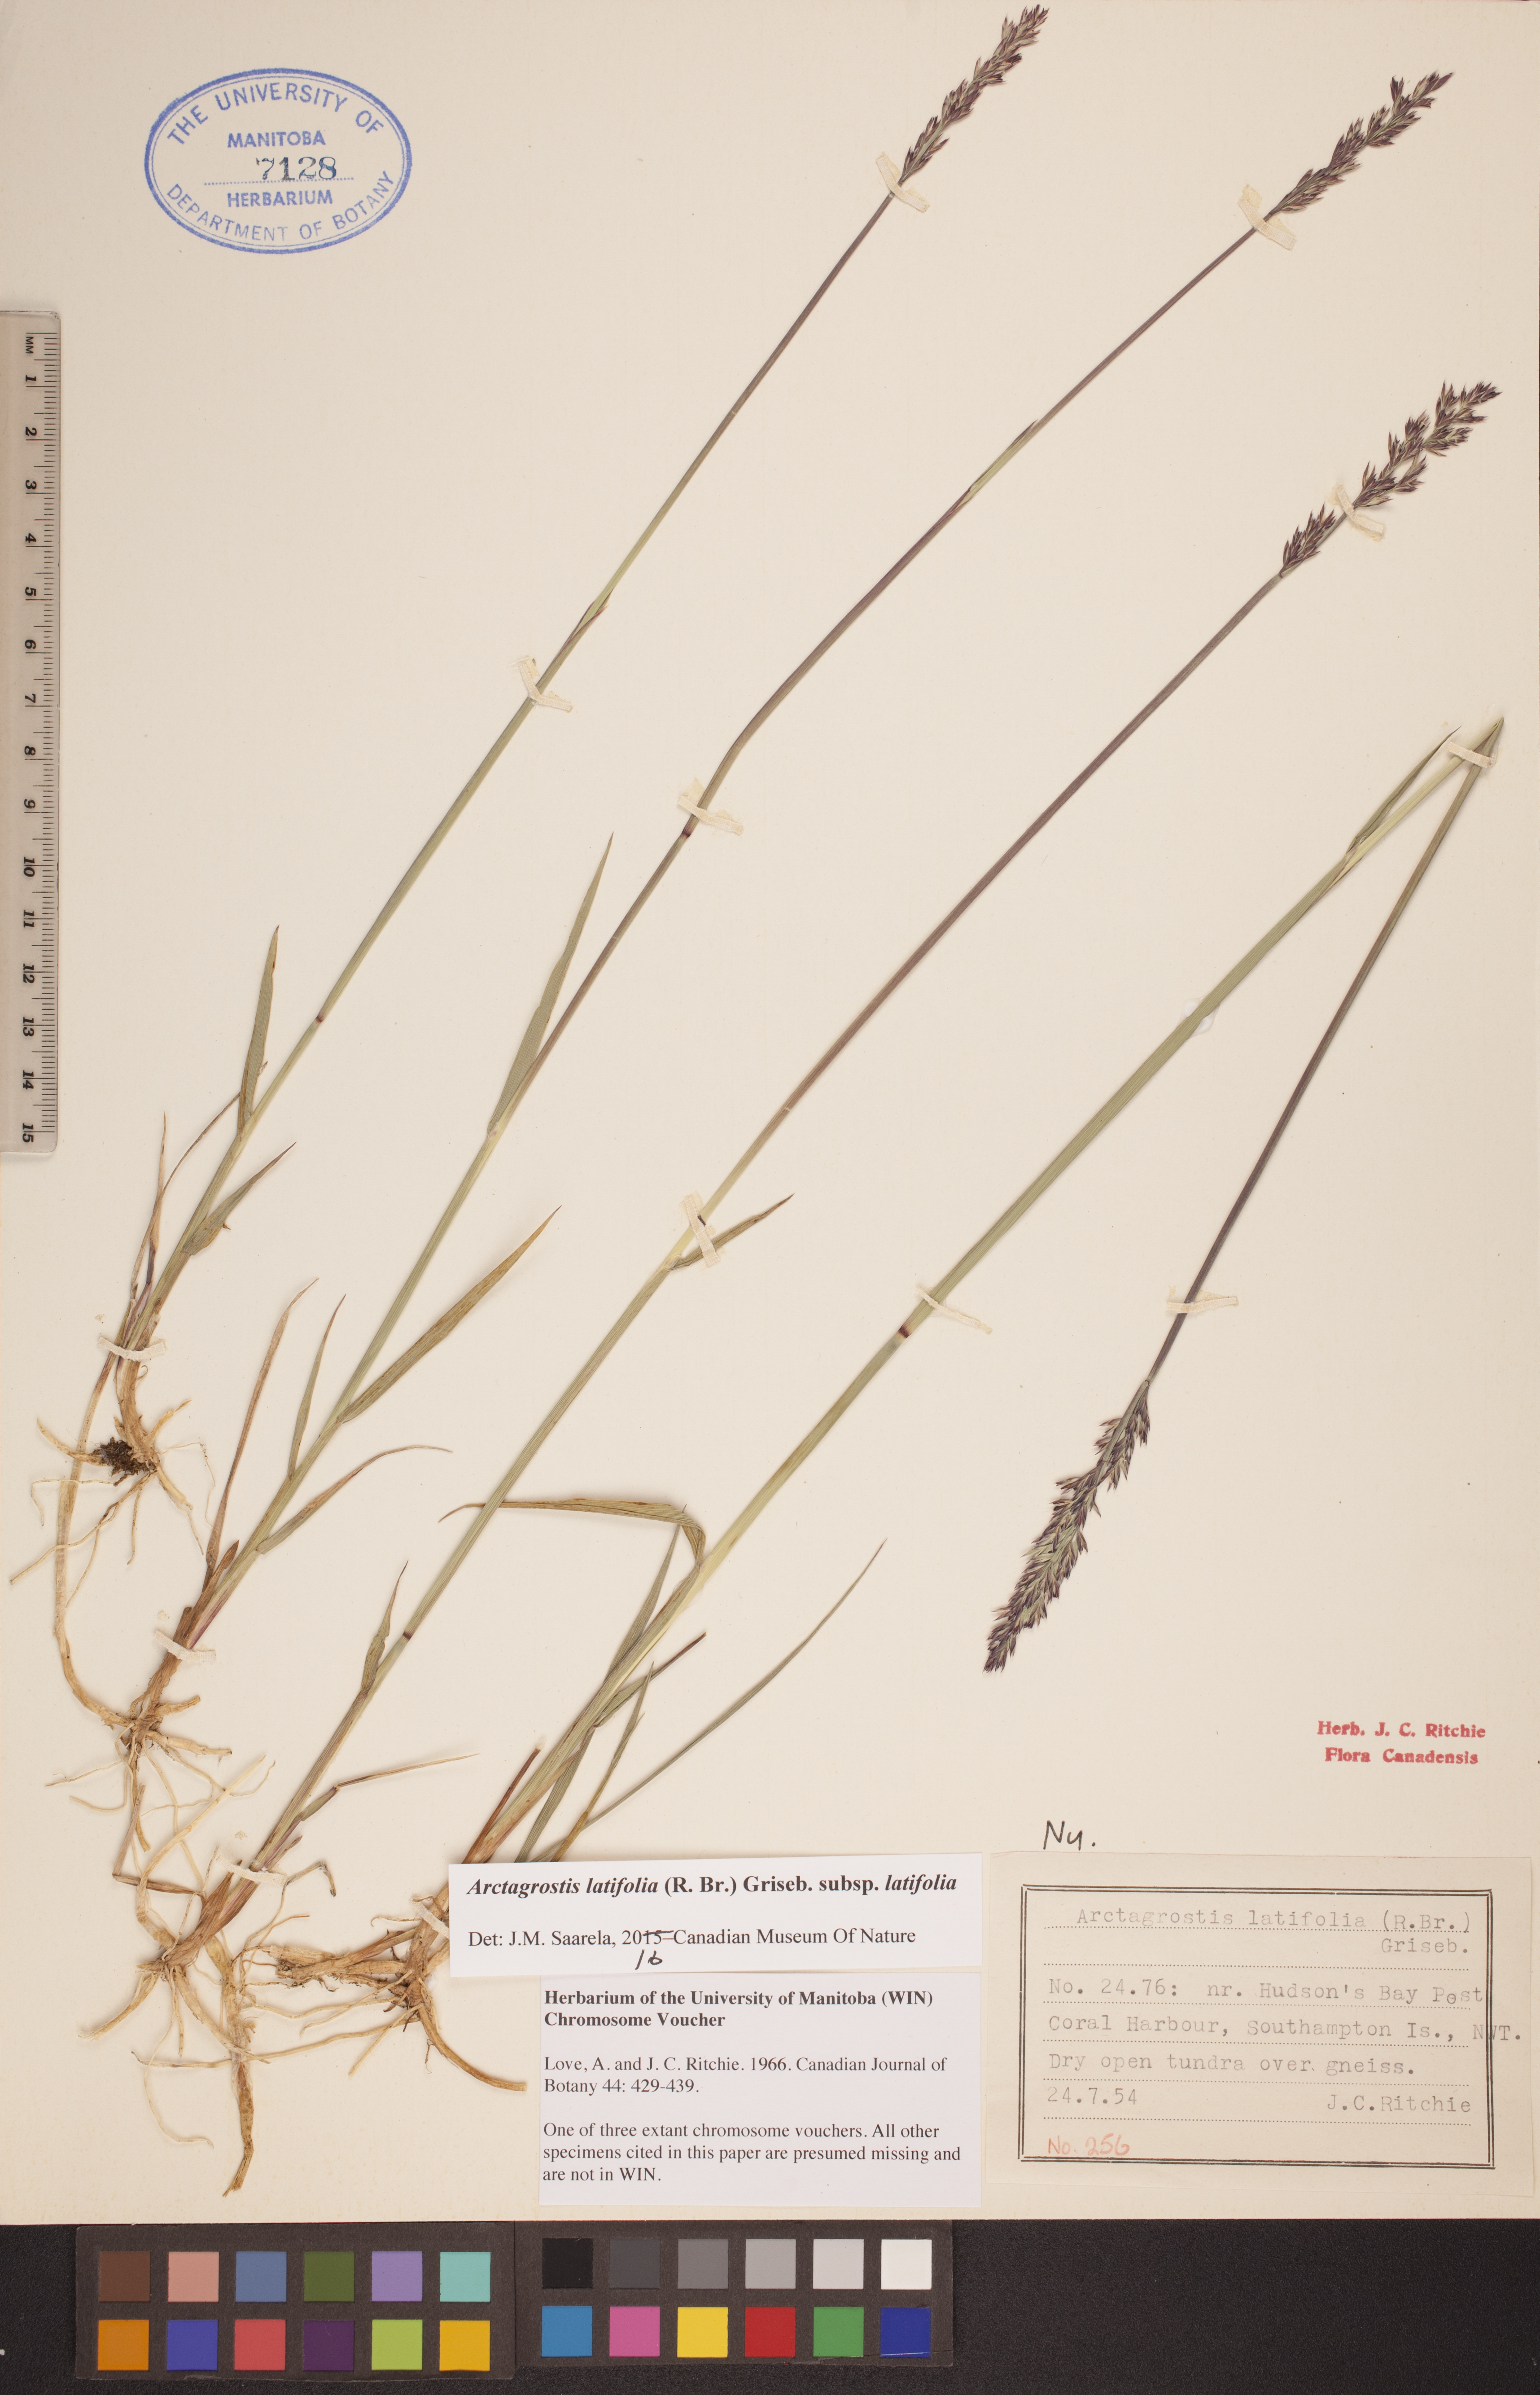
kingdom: Plantae
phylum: Tracheophyta
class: Liliopsida
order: Poales
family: Poaceae
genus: Arctagrostis
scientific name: Arctagrostis latifolia
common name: Arctic grass
